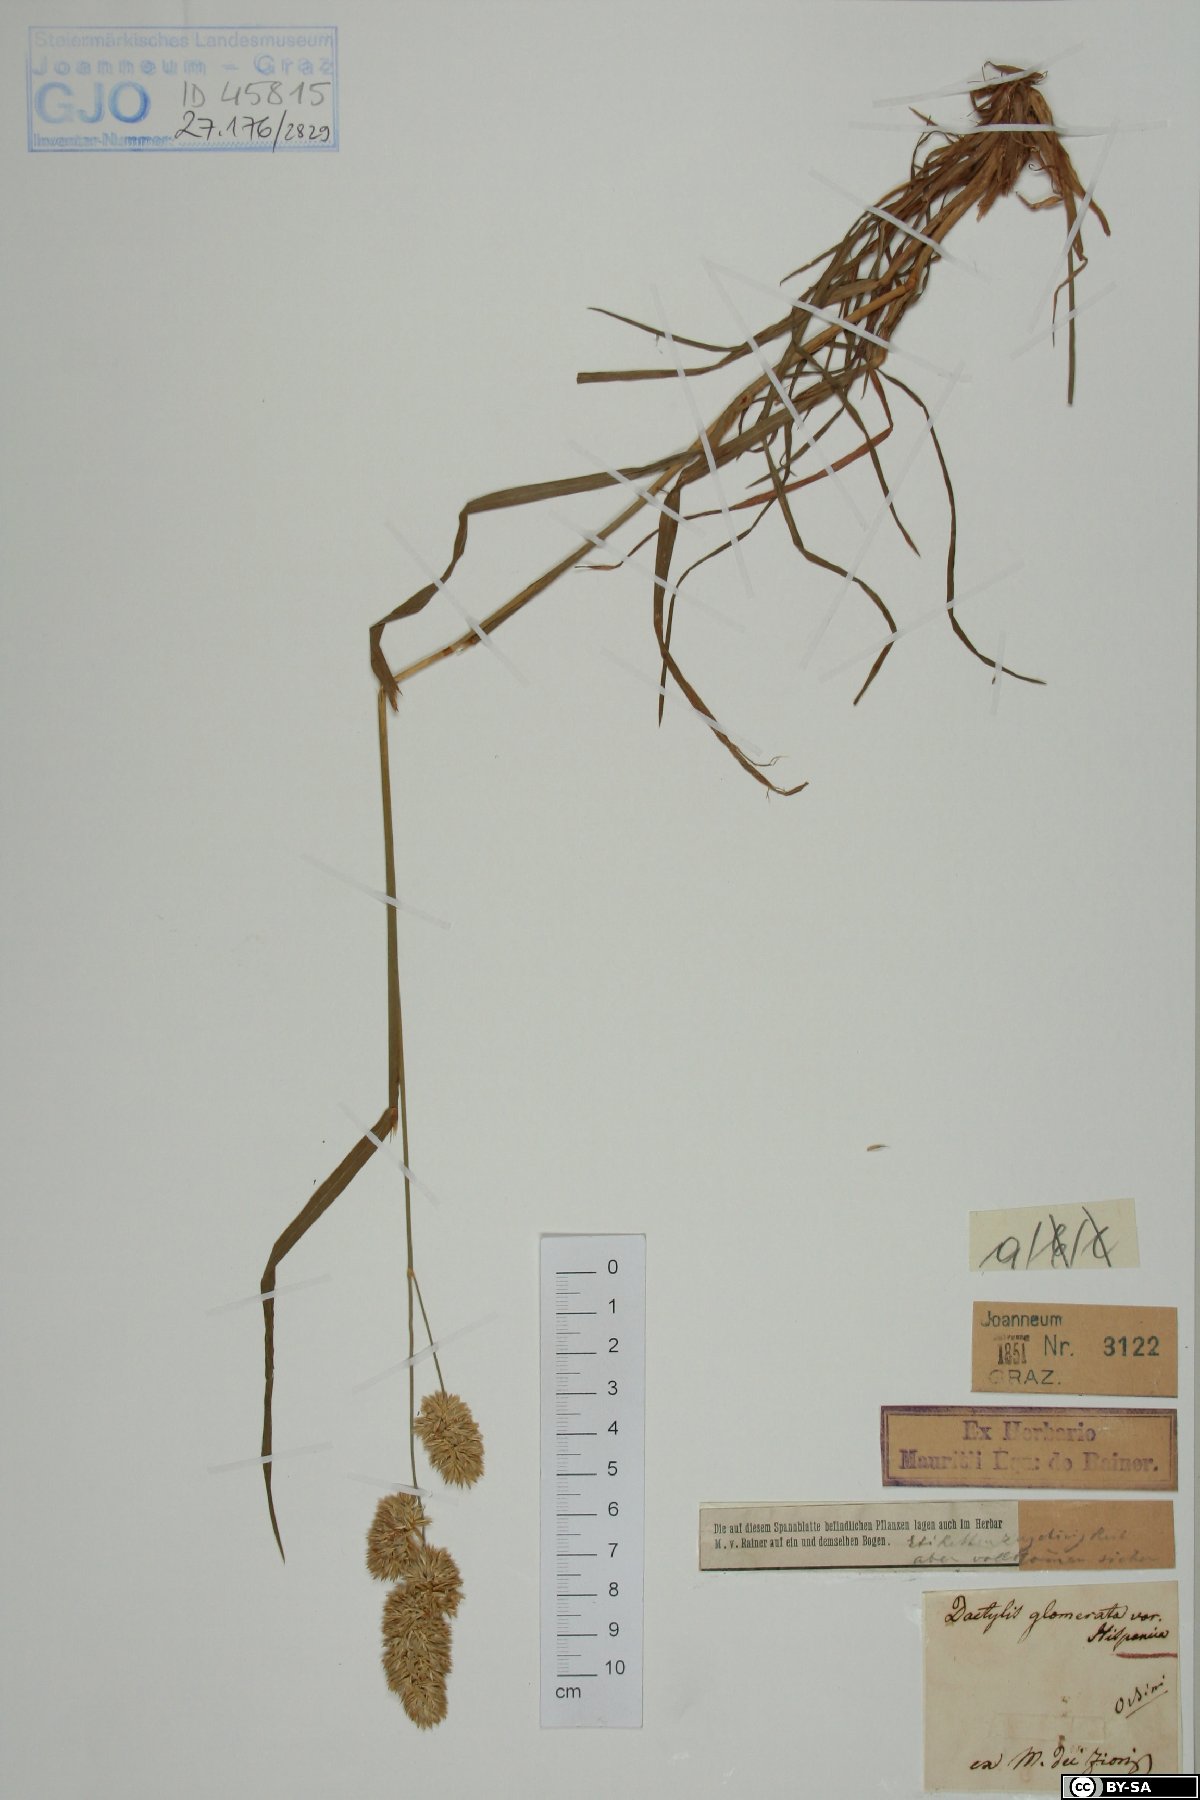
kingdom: Plantae
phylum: Tracheophyta
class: Liliopsida
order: Poales
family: Poaceae
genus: Dactylis
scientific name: Dactylis glomerata
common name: Orchardgrass
